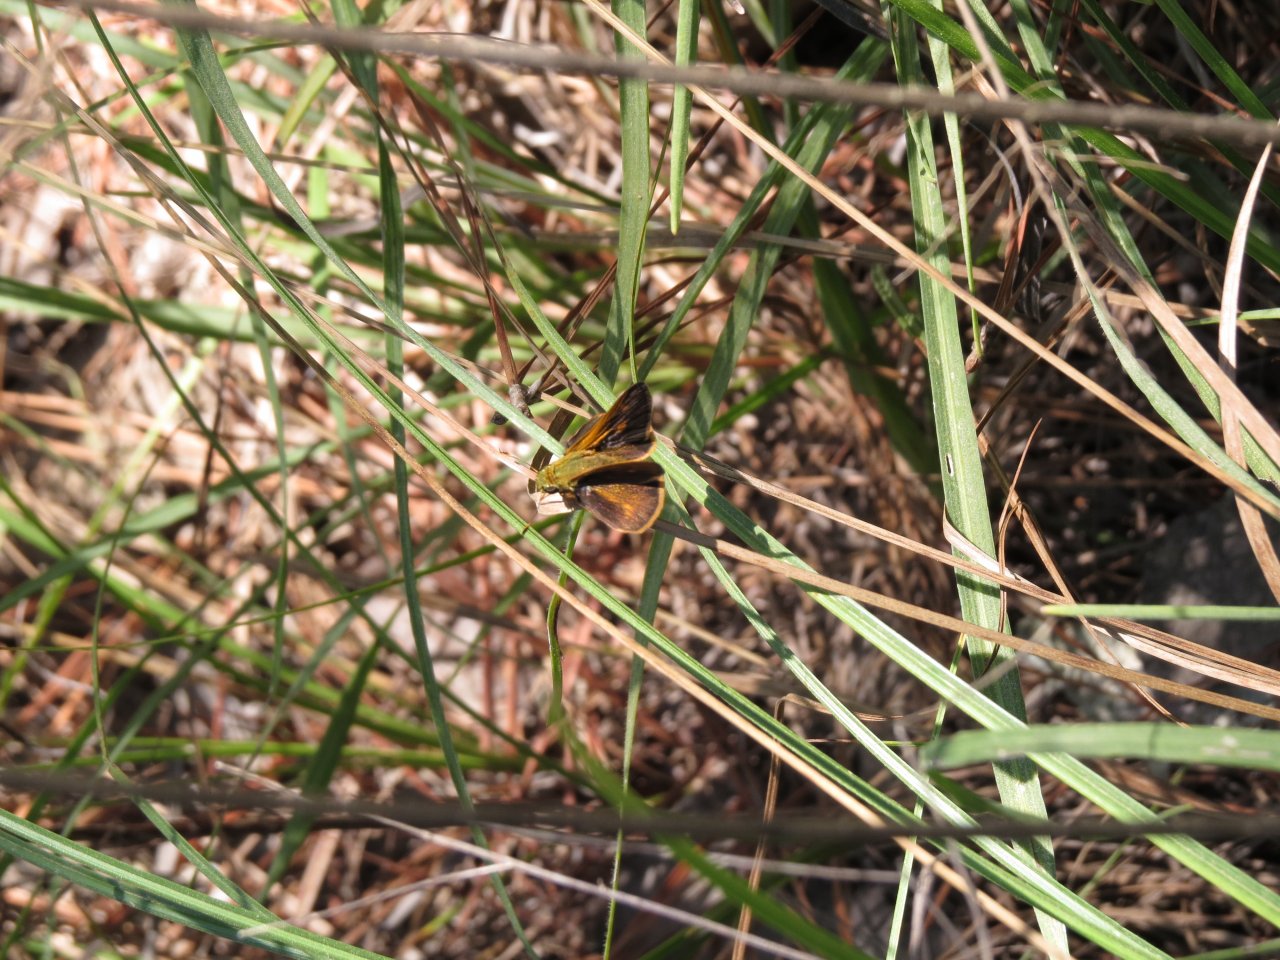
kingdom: Animalia
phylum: Arthropoda
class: Insecta
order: Lepidoptera
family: Hesperiidae
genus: Wallengrenia
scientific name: Wallengrenia otho
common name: Southern Broken-Dash
